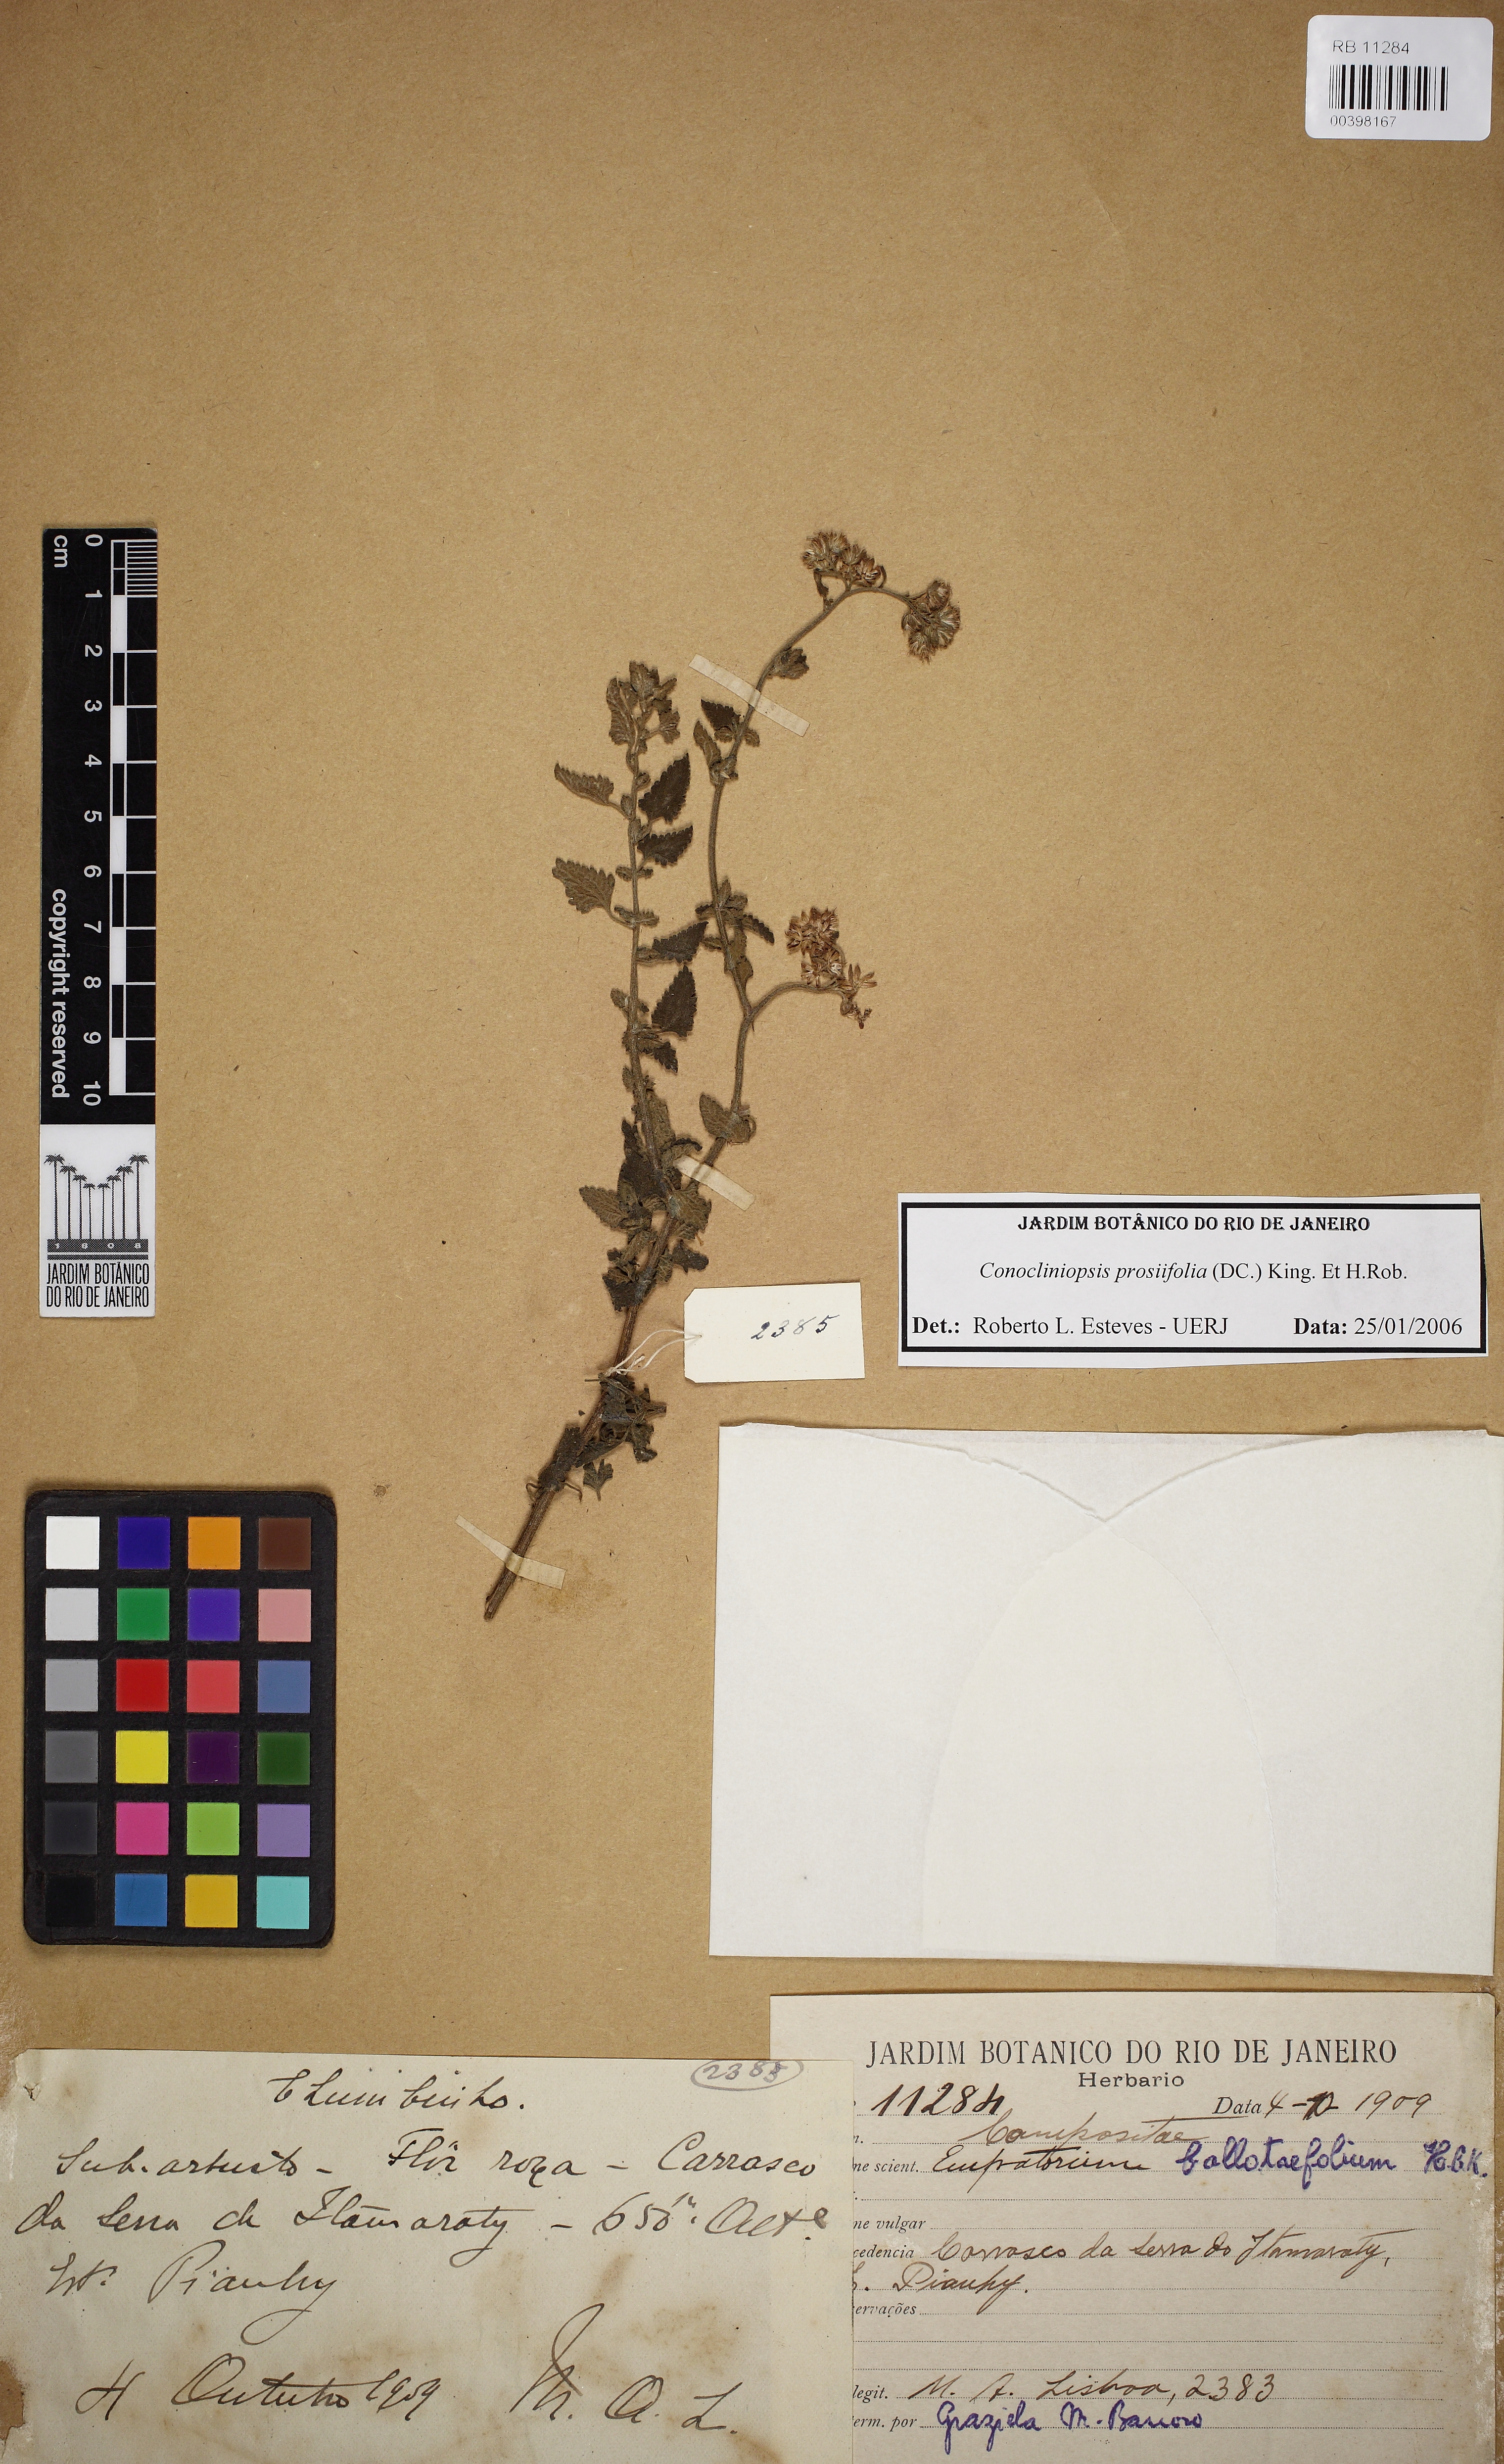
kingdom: Plantae
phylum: Tracheophyta
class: Magnoliopsida
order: Asterales
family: Asteraceae
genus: Conocliniopsis
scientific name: Conocliniopsis grossedentata
